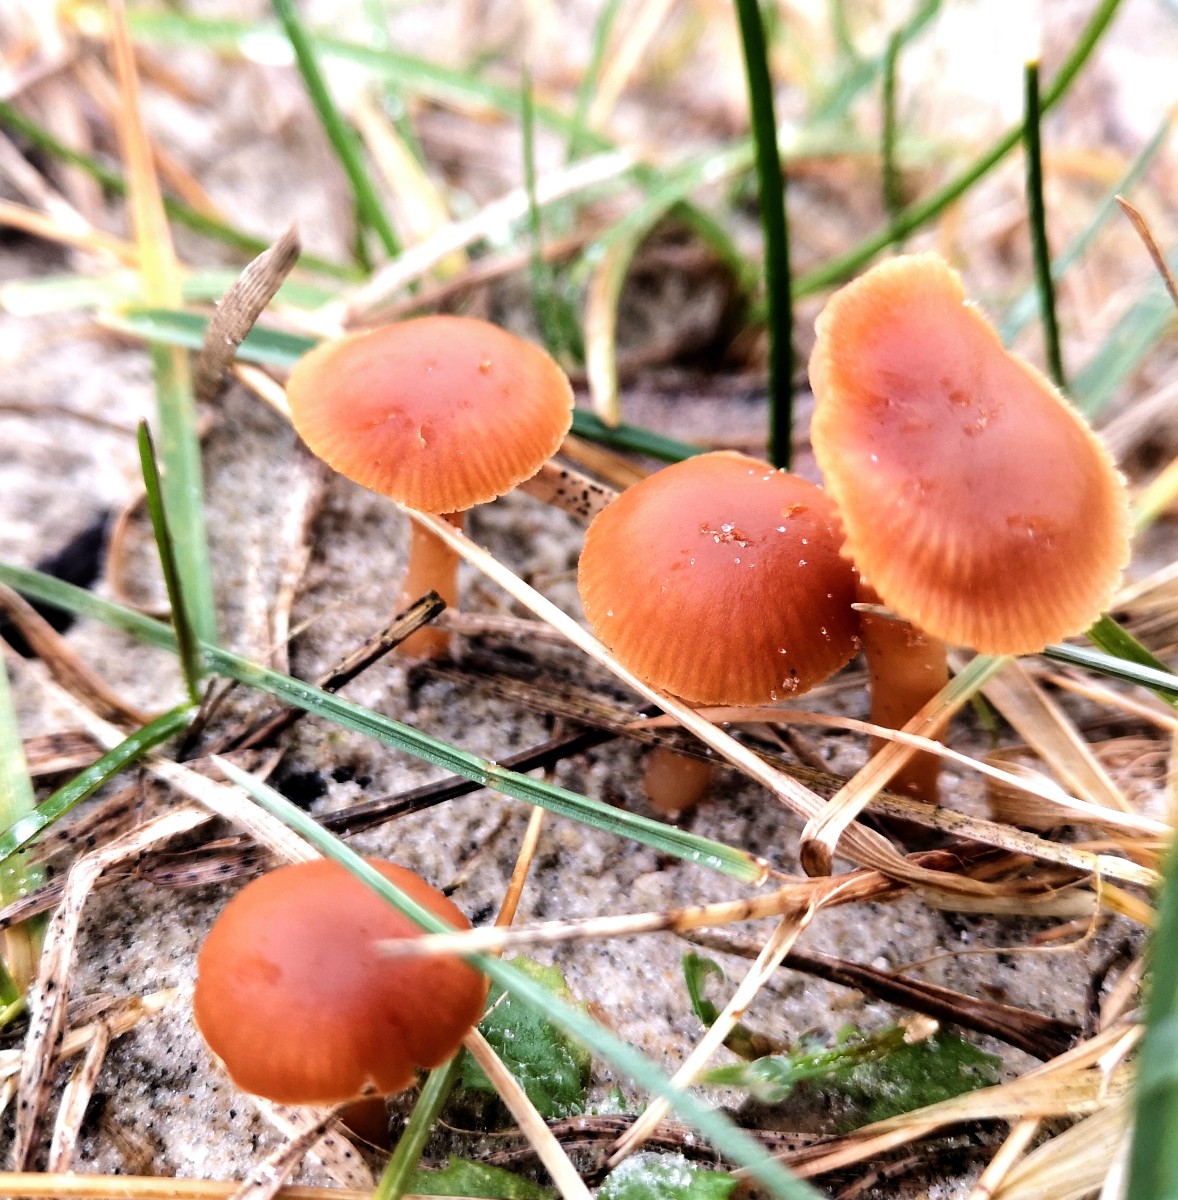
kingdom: Fungi
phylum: Basidiomycota
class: Agaricomycetes
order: Agaricales
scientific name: Agaricales
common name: champignonordenen
